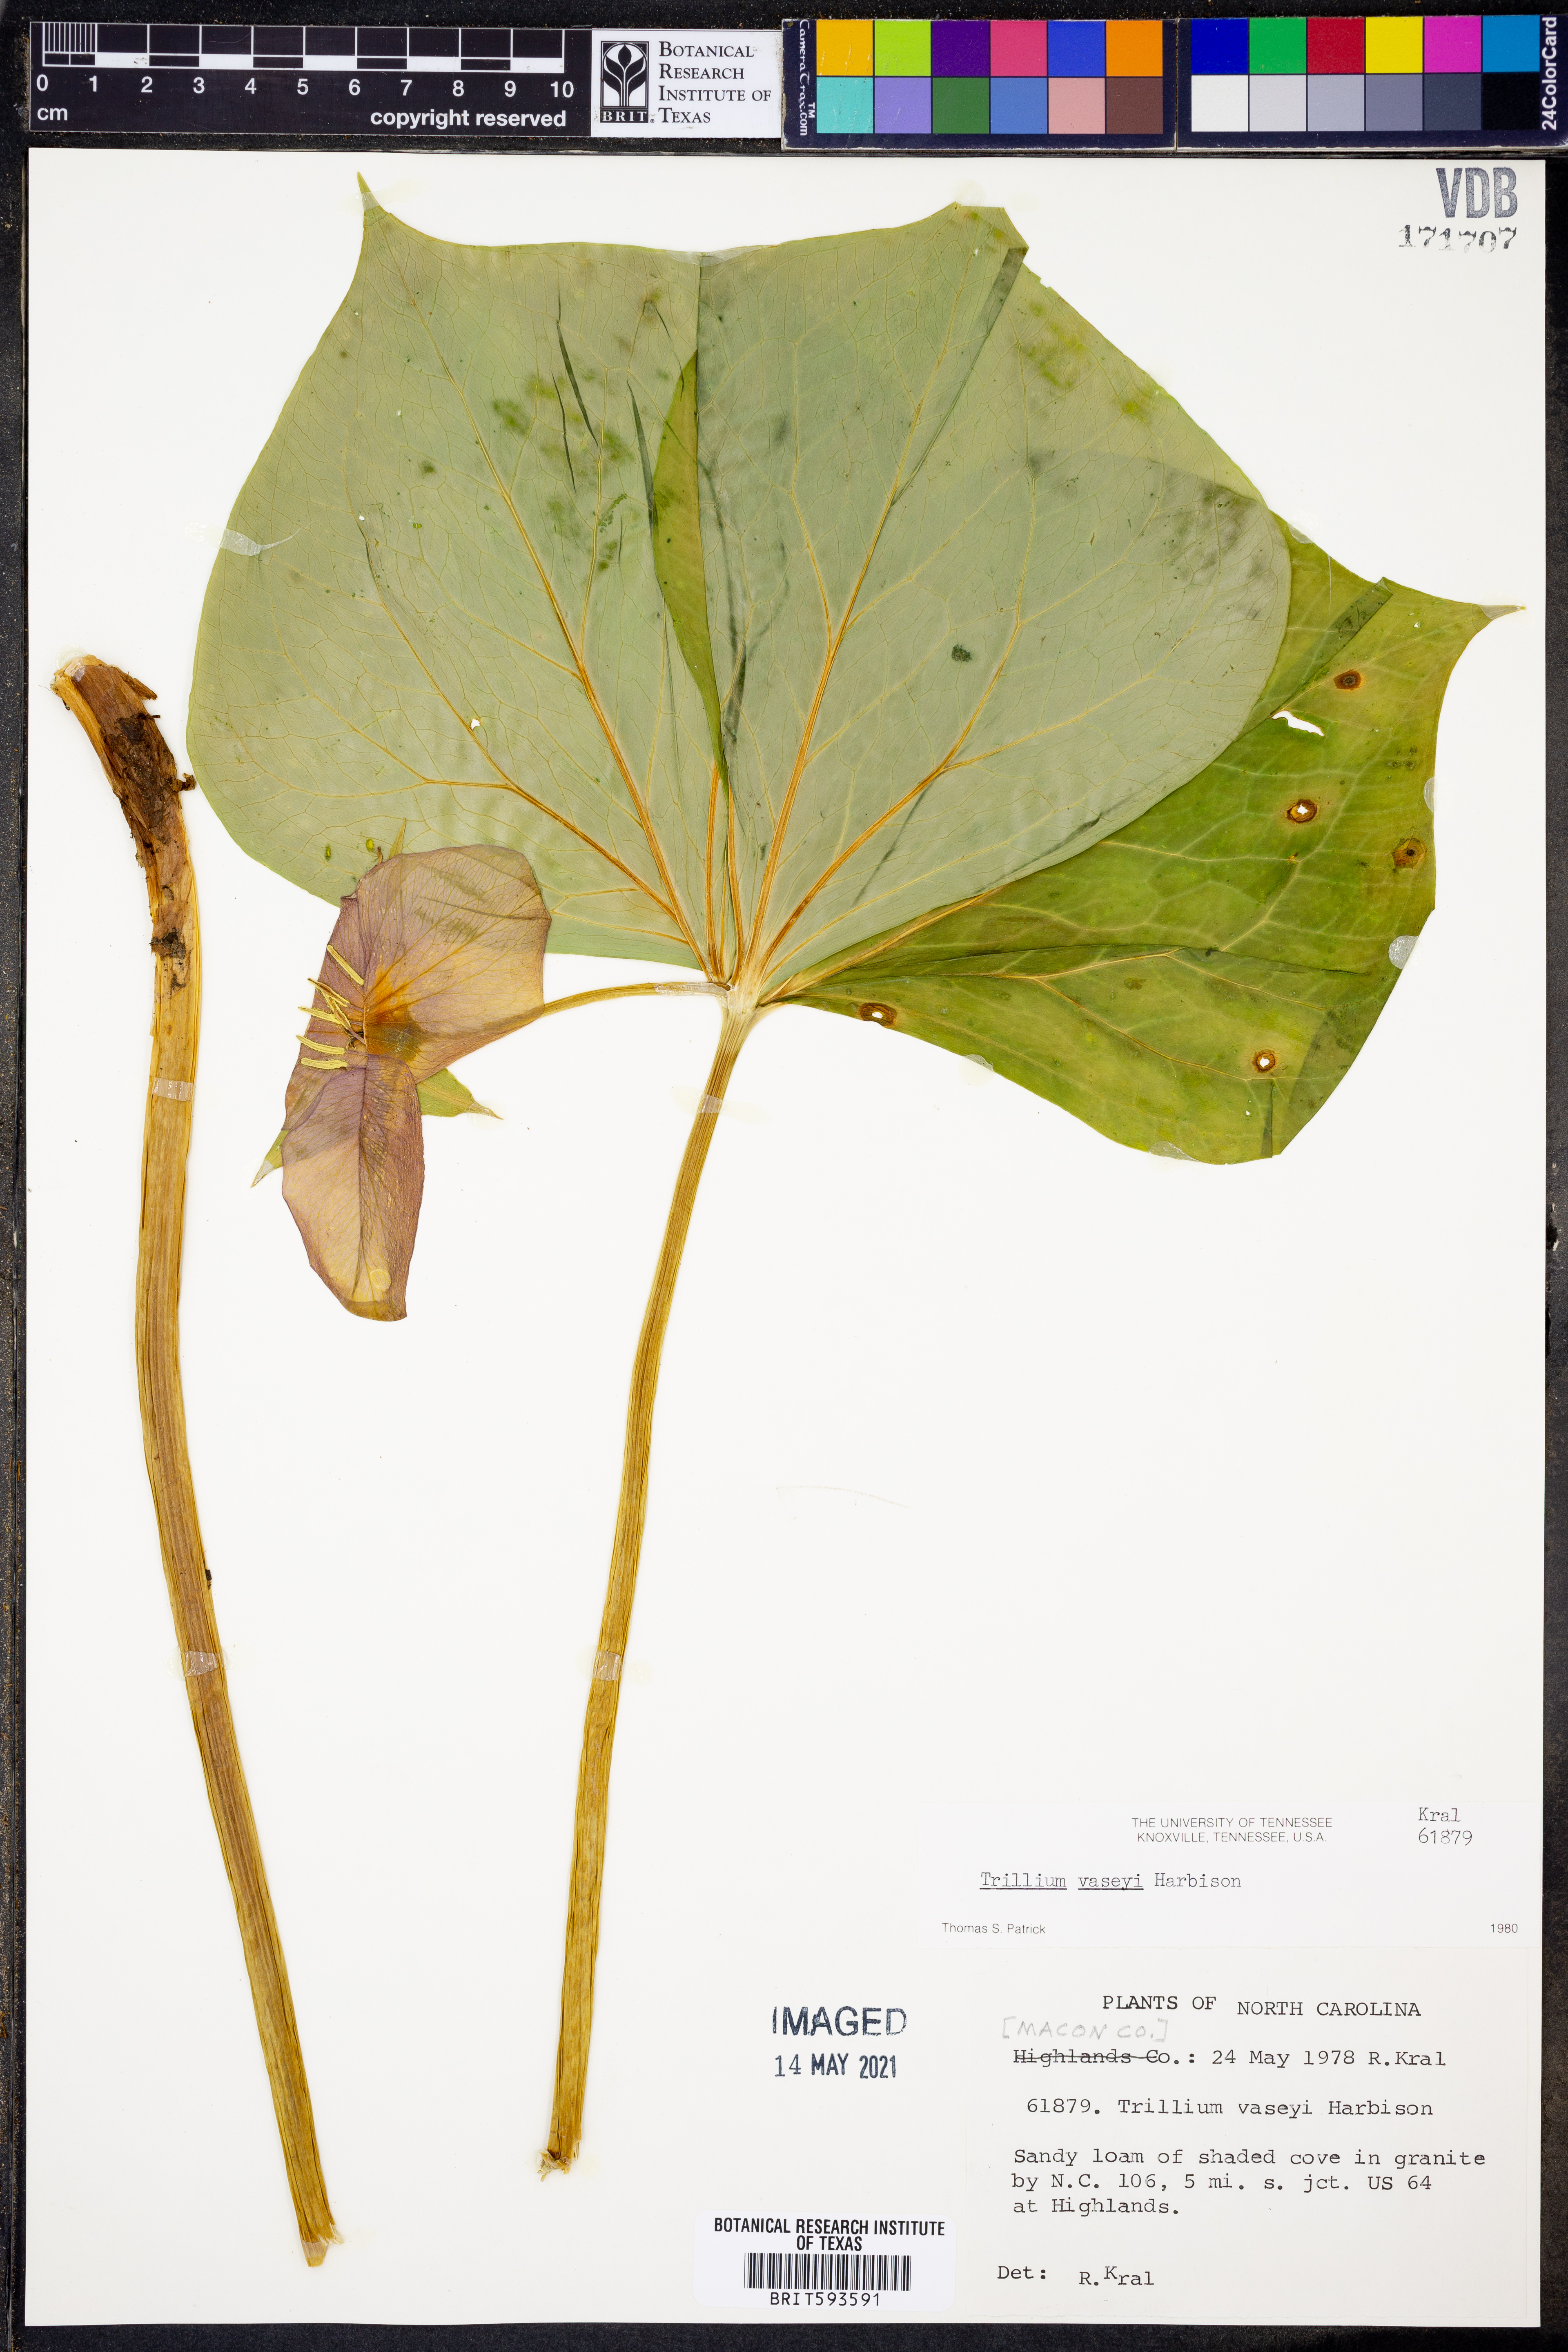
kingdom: Plantae
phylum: Tracheophyta
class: Liliopsida
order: Liliales
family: Melanthiaceae
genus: Trillium
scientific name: Trillium vaseyi
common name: Sweet trillium
